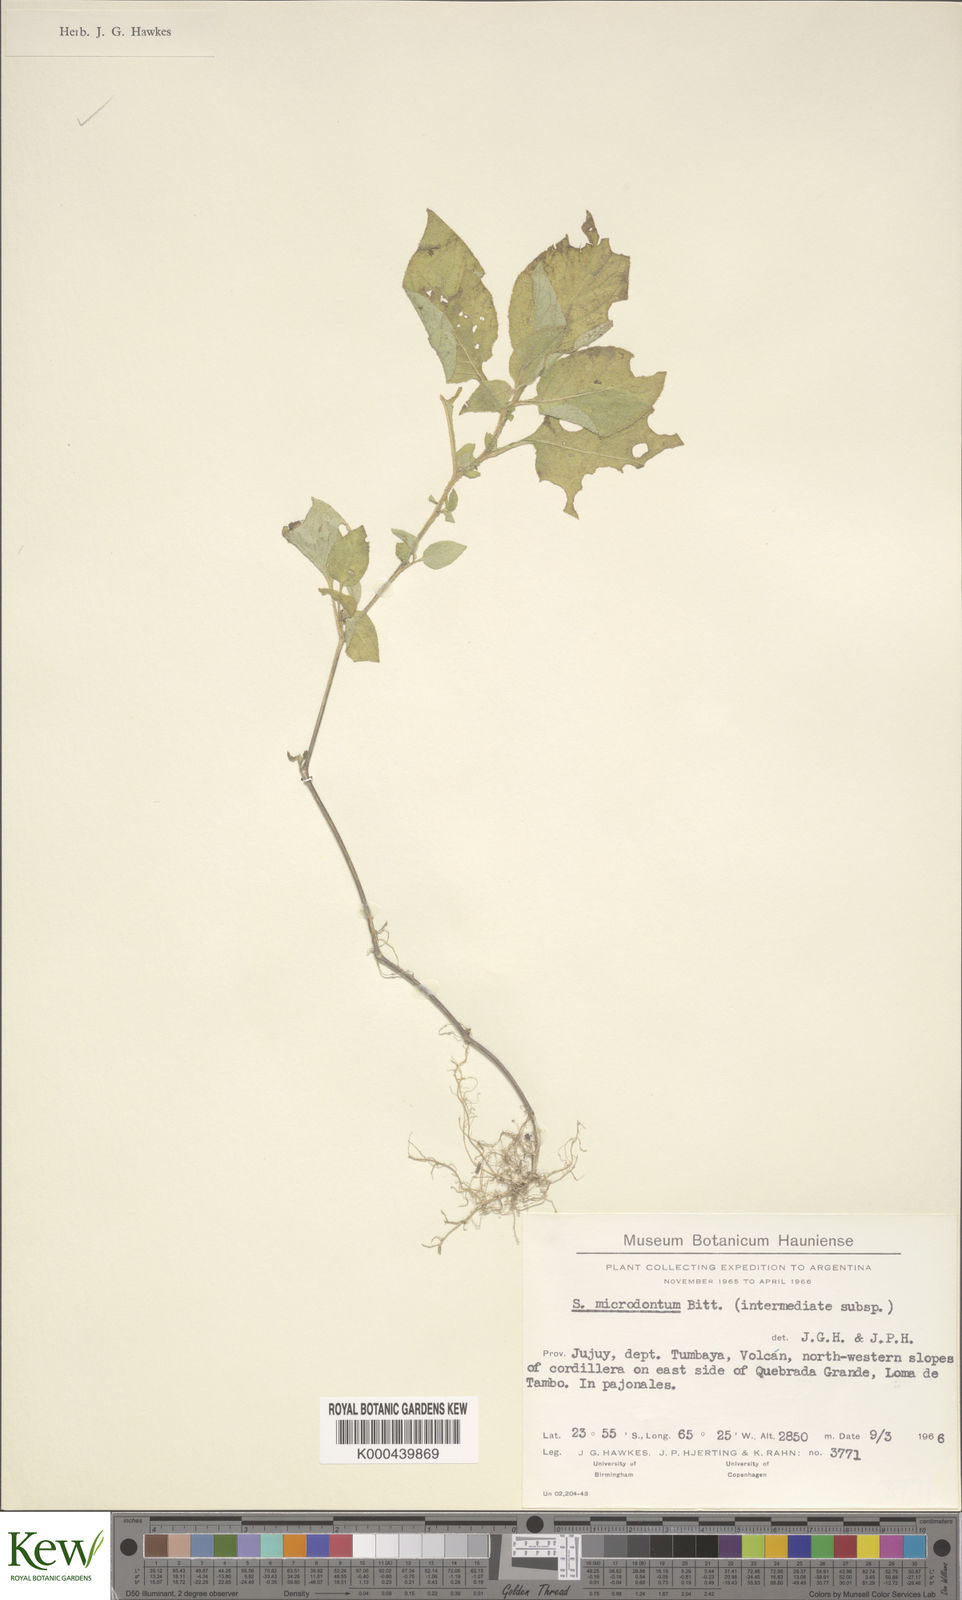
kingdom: Plantae
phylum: Tracheophyta
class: Magnoliopsida
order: Solanales
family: Solanaceae
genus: Solanum
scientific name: Solanum microdontum
